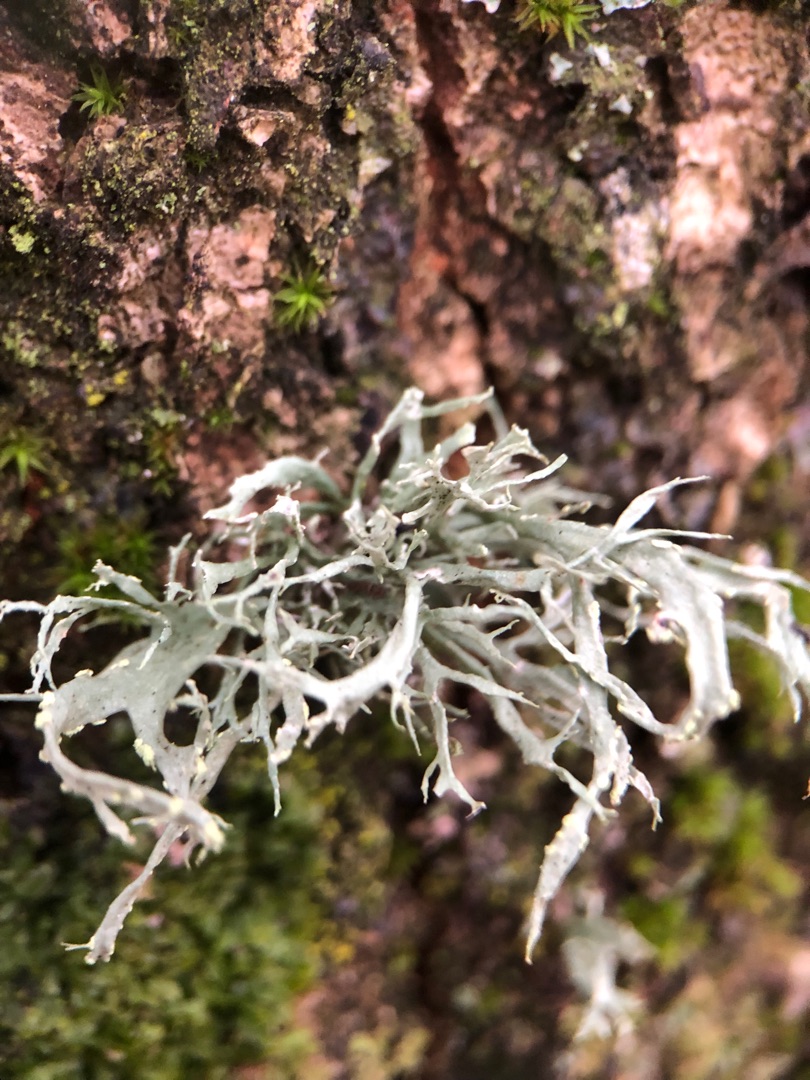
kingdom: Fungi
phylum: Ascomycota
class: Lecanoromycetes
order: Lecanorales
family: Ramalinaceae
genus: Ramalina
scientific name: Ramalina farinacea
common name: Melet grenlav
